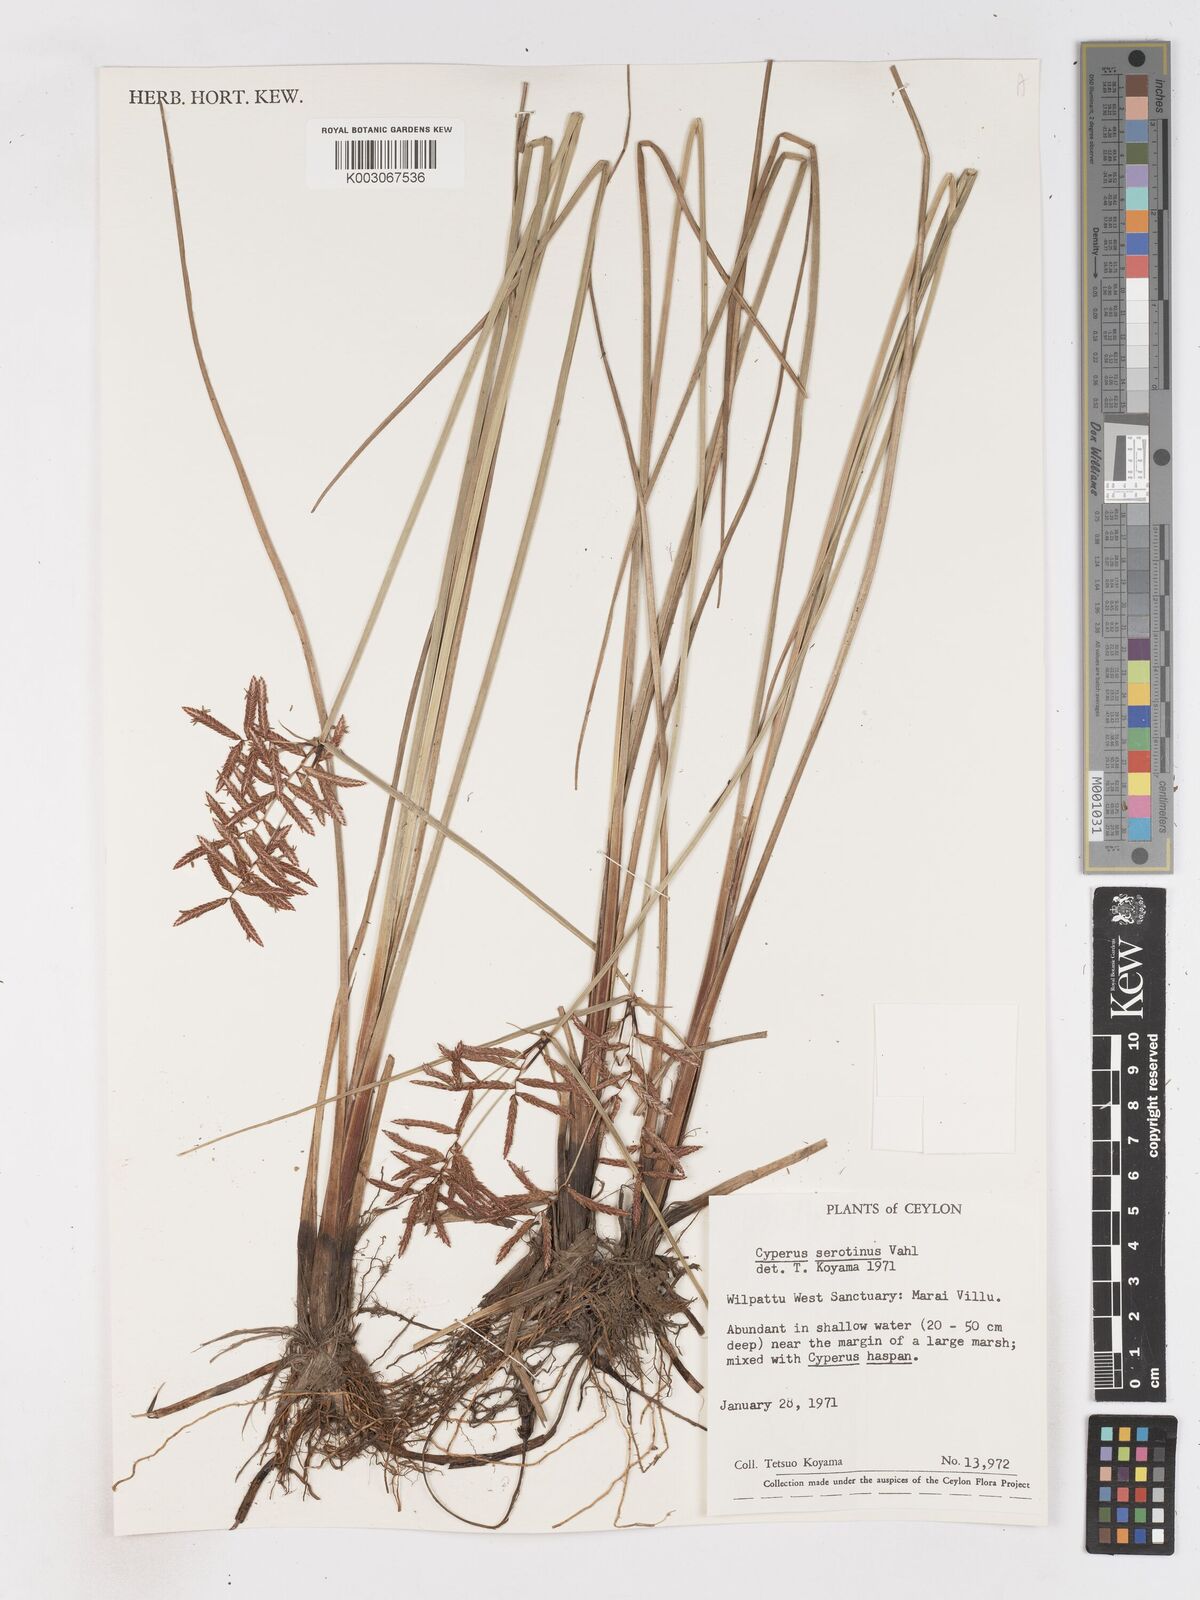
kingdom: Plantae
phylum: Tracheophyta
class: Liliopsida
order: Poales
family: Cyperaceae
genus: Cyperus
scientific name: Cyperus serotinus
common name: Tidalmarsh flatsedge
